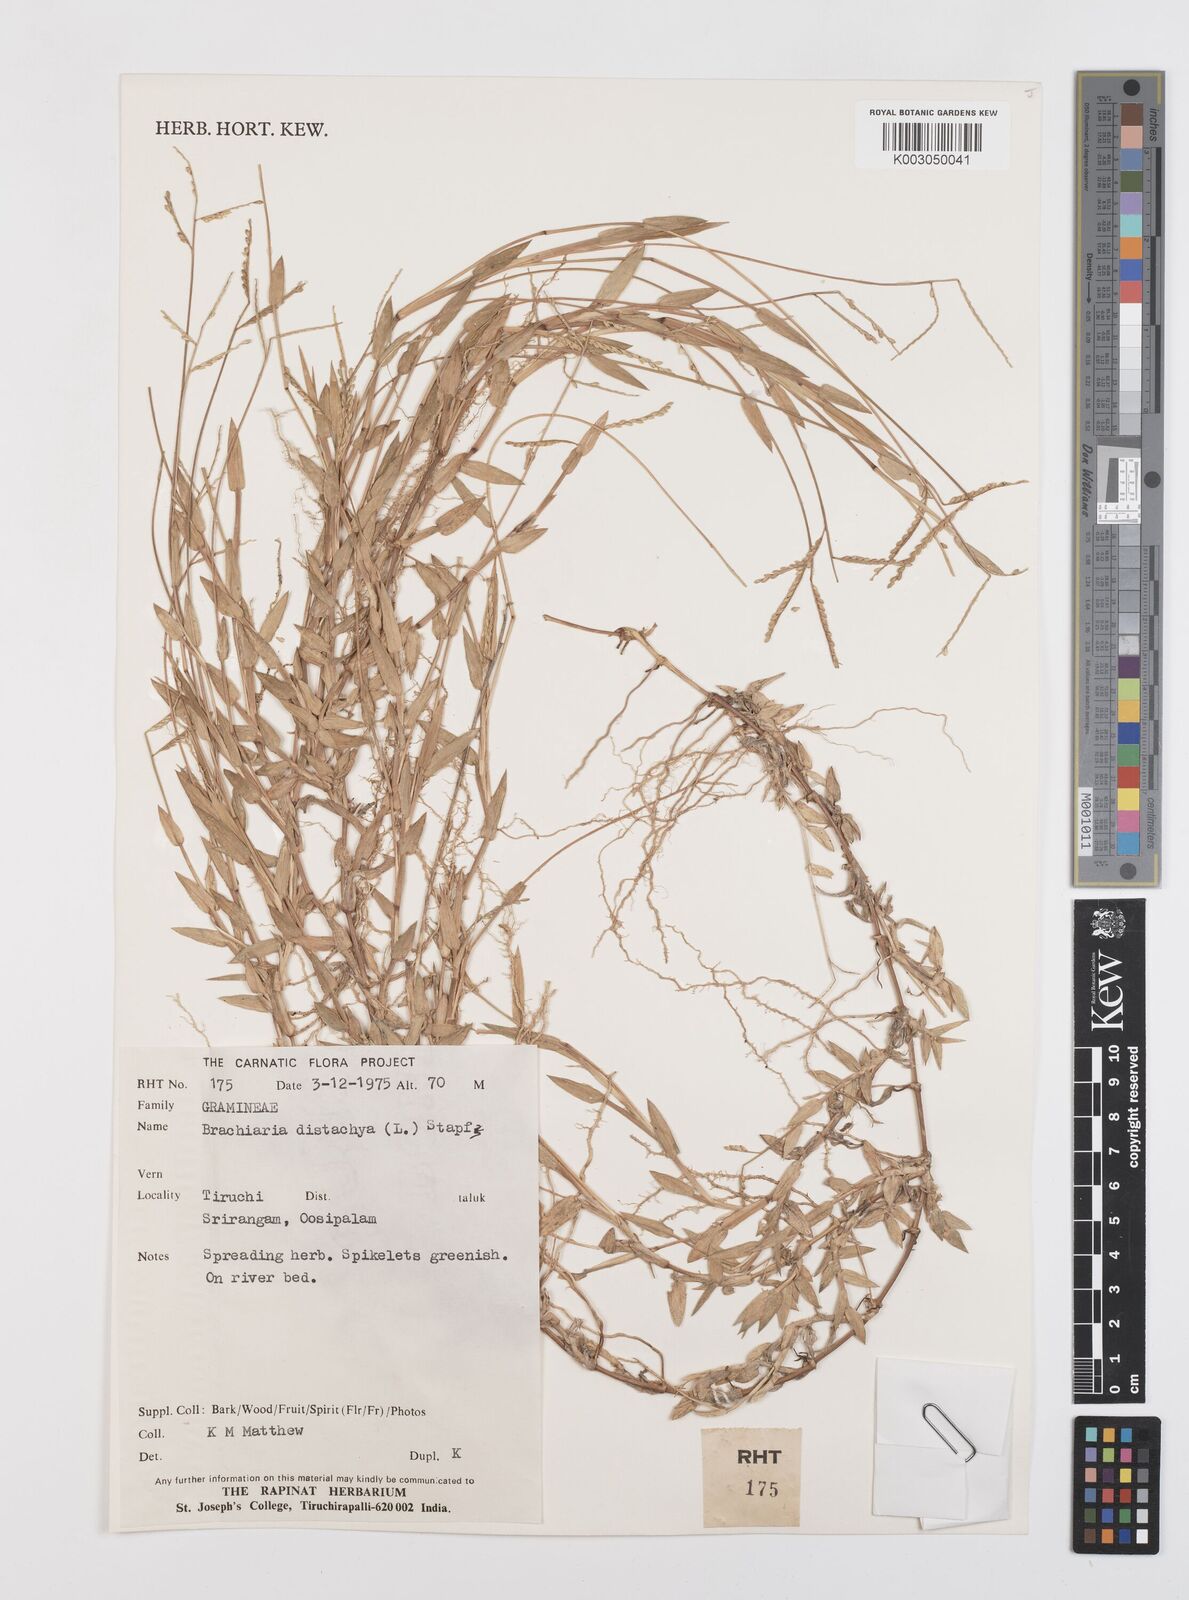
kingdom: Plantae
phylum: Tracheophyta
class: Liliopsida
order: Poales
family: Poaceae
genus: Urochloa
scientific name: Urochloa distachyos
